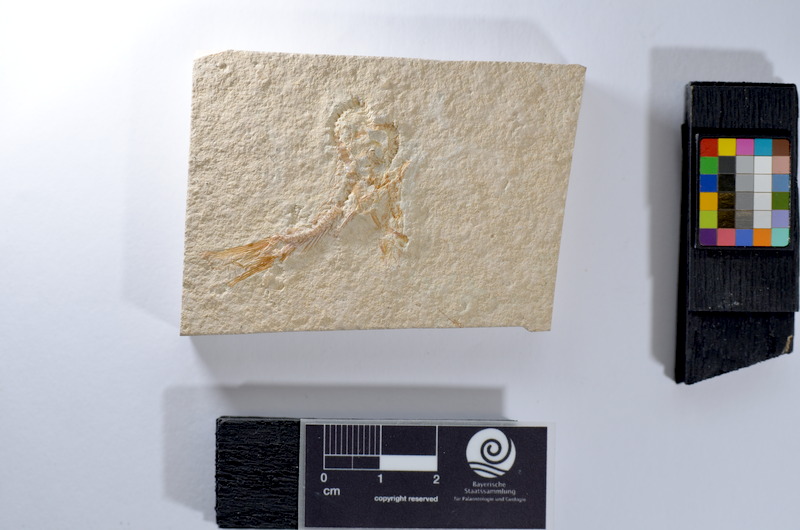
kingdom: Animalia
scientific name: Animalia
